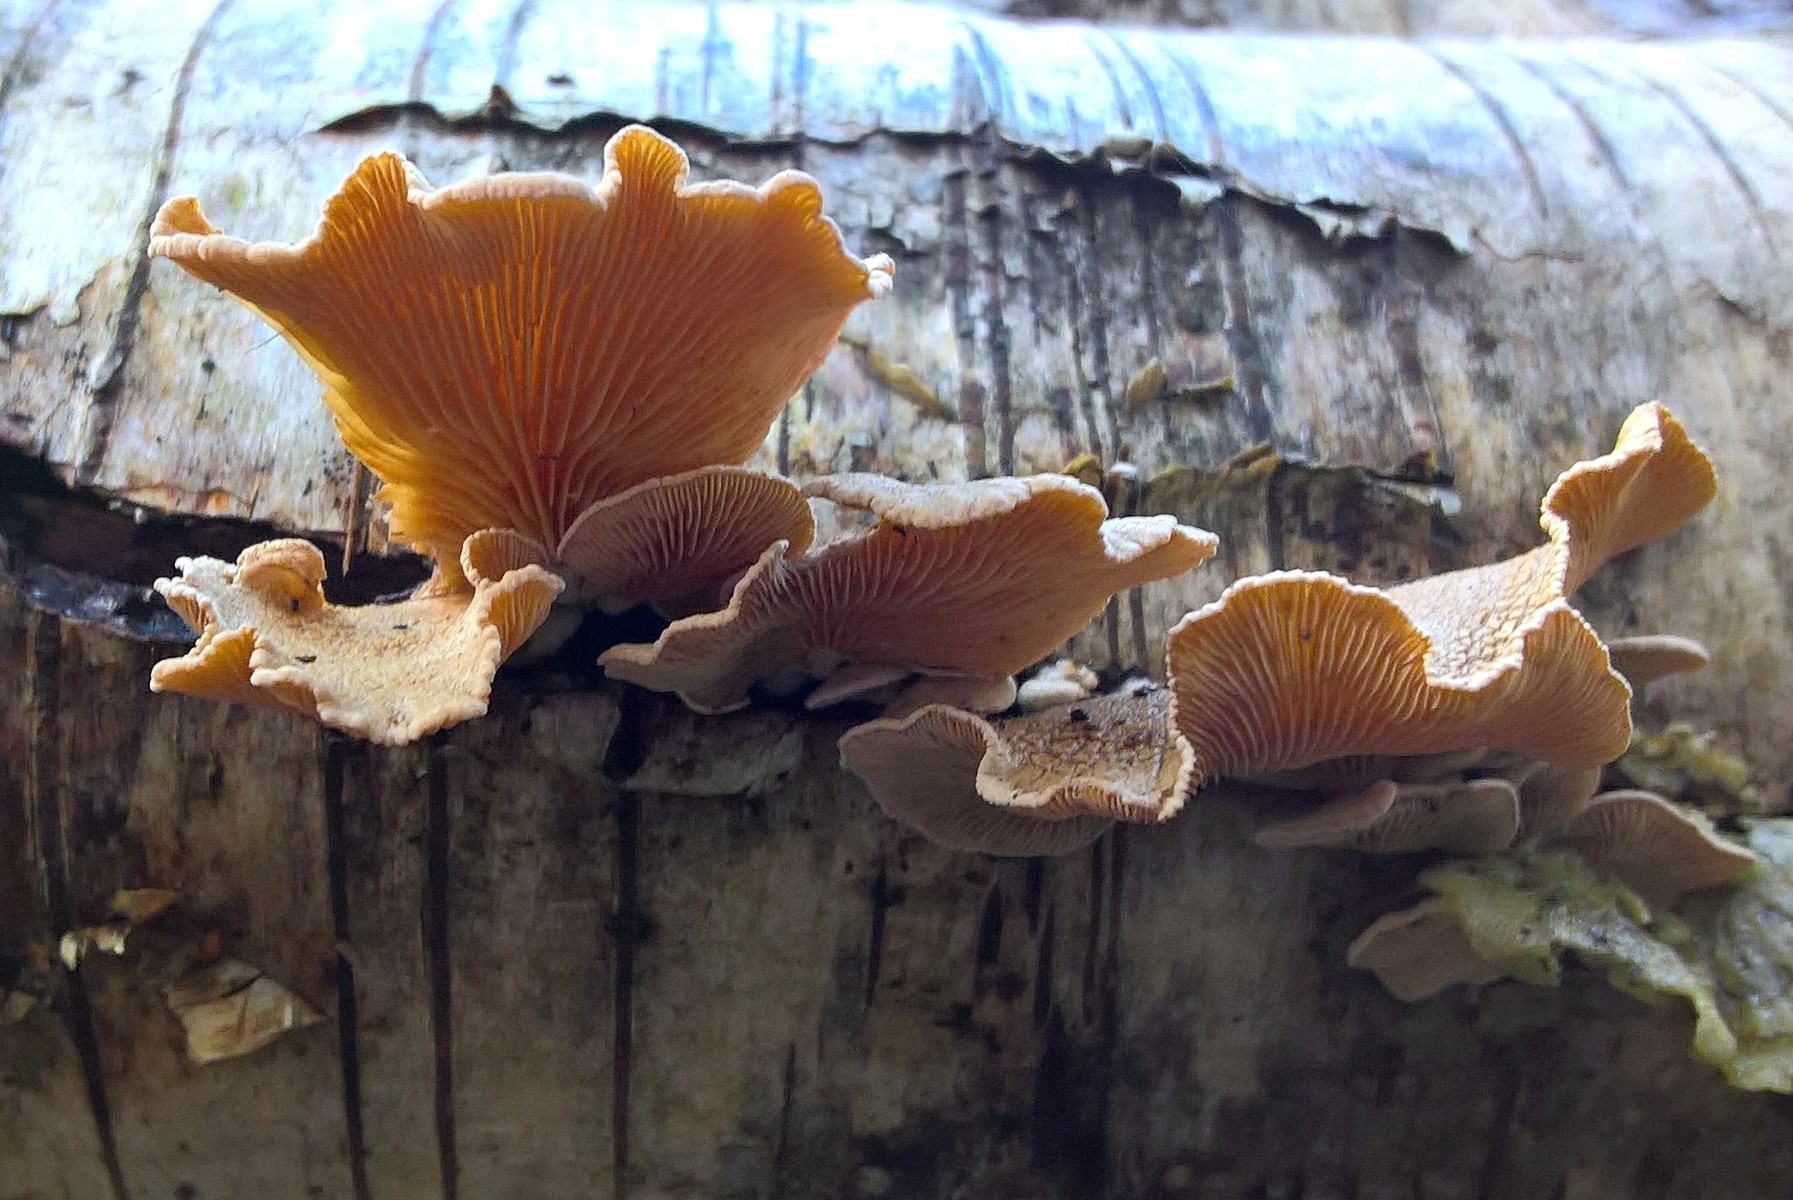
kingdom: Fungi
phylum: Basidiomycota
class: Agaricomycetes
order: Agaricales
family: Mycenaceae
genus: Panellus
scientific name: Panellus stipticus
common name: kliddet epaulethat
